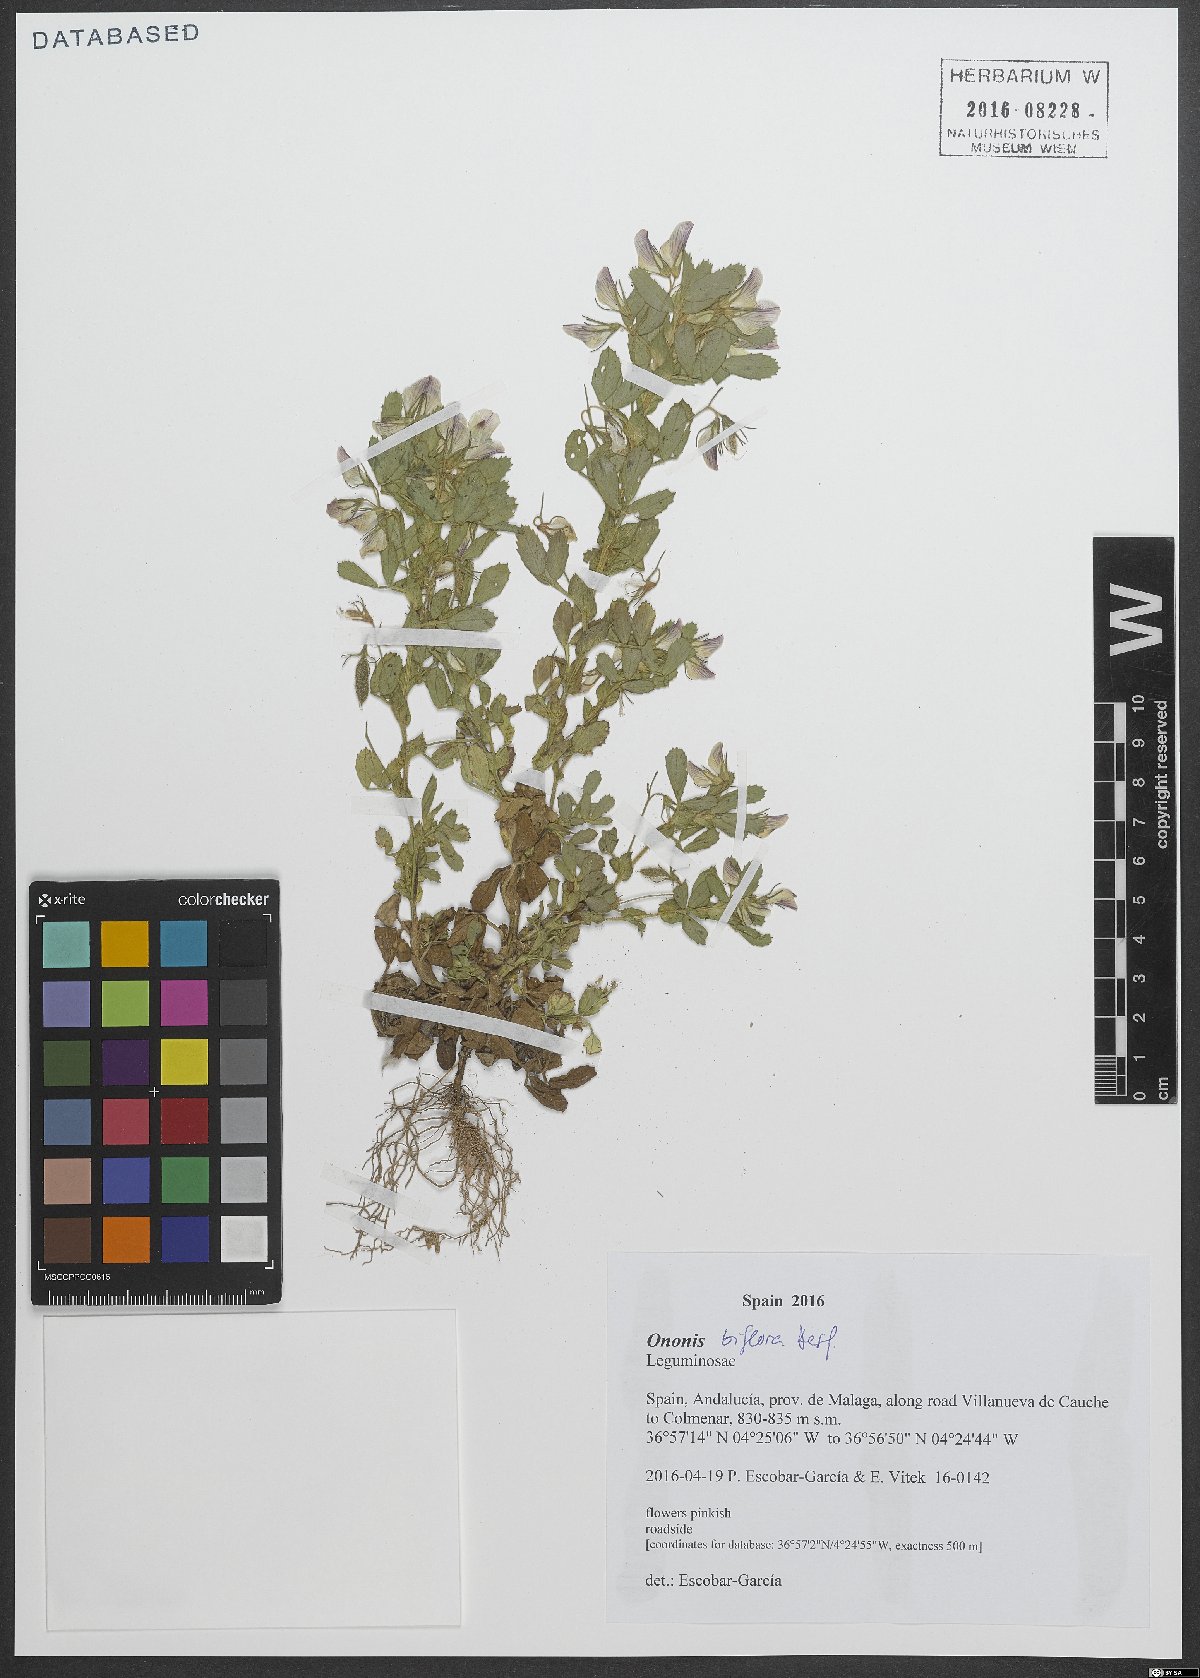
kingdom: Plantae
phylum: Tracheophyta
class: Magnoliopsida
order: Fabales
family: Fabaceae
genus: Ononis
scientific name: Ononis biflora
